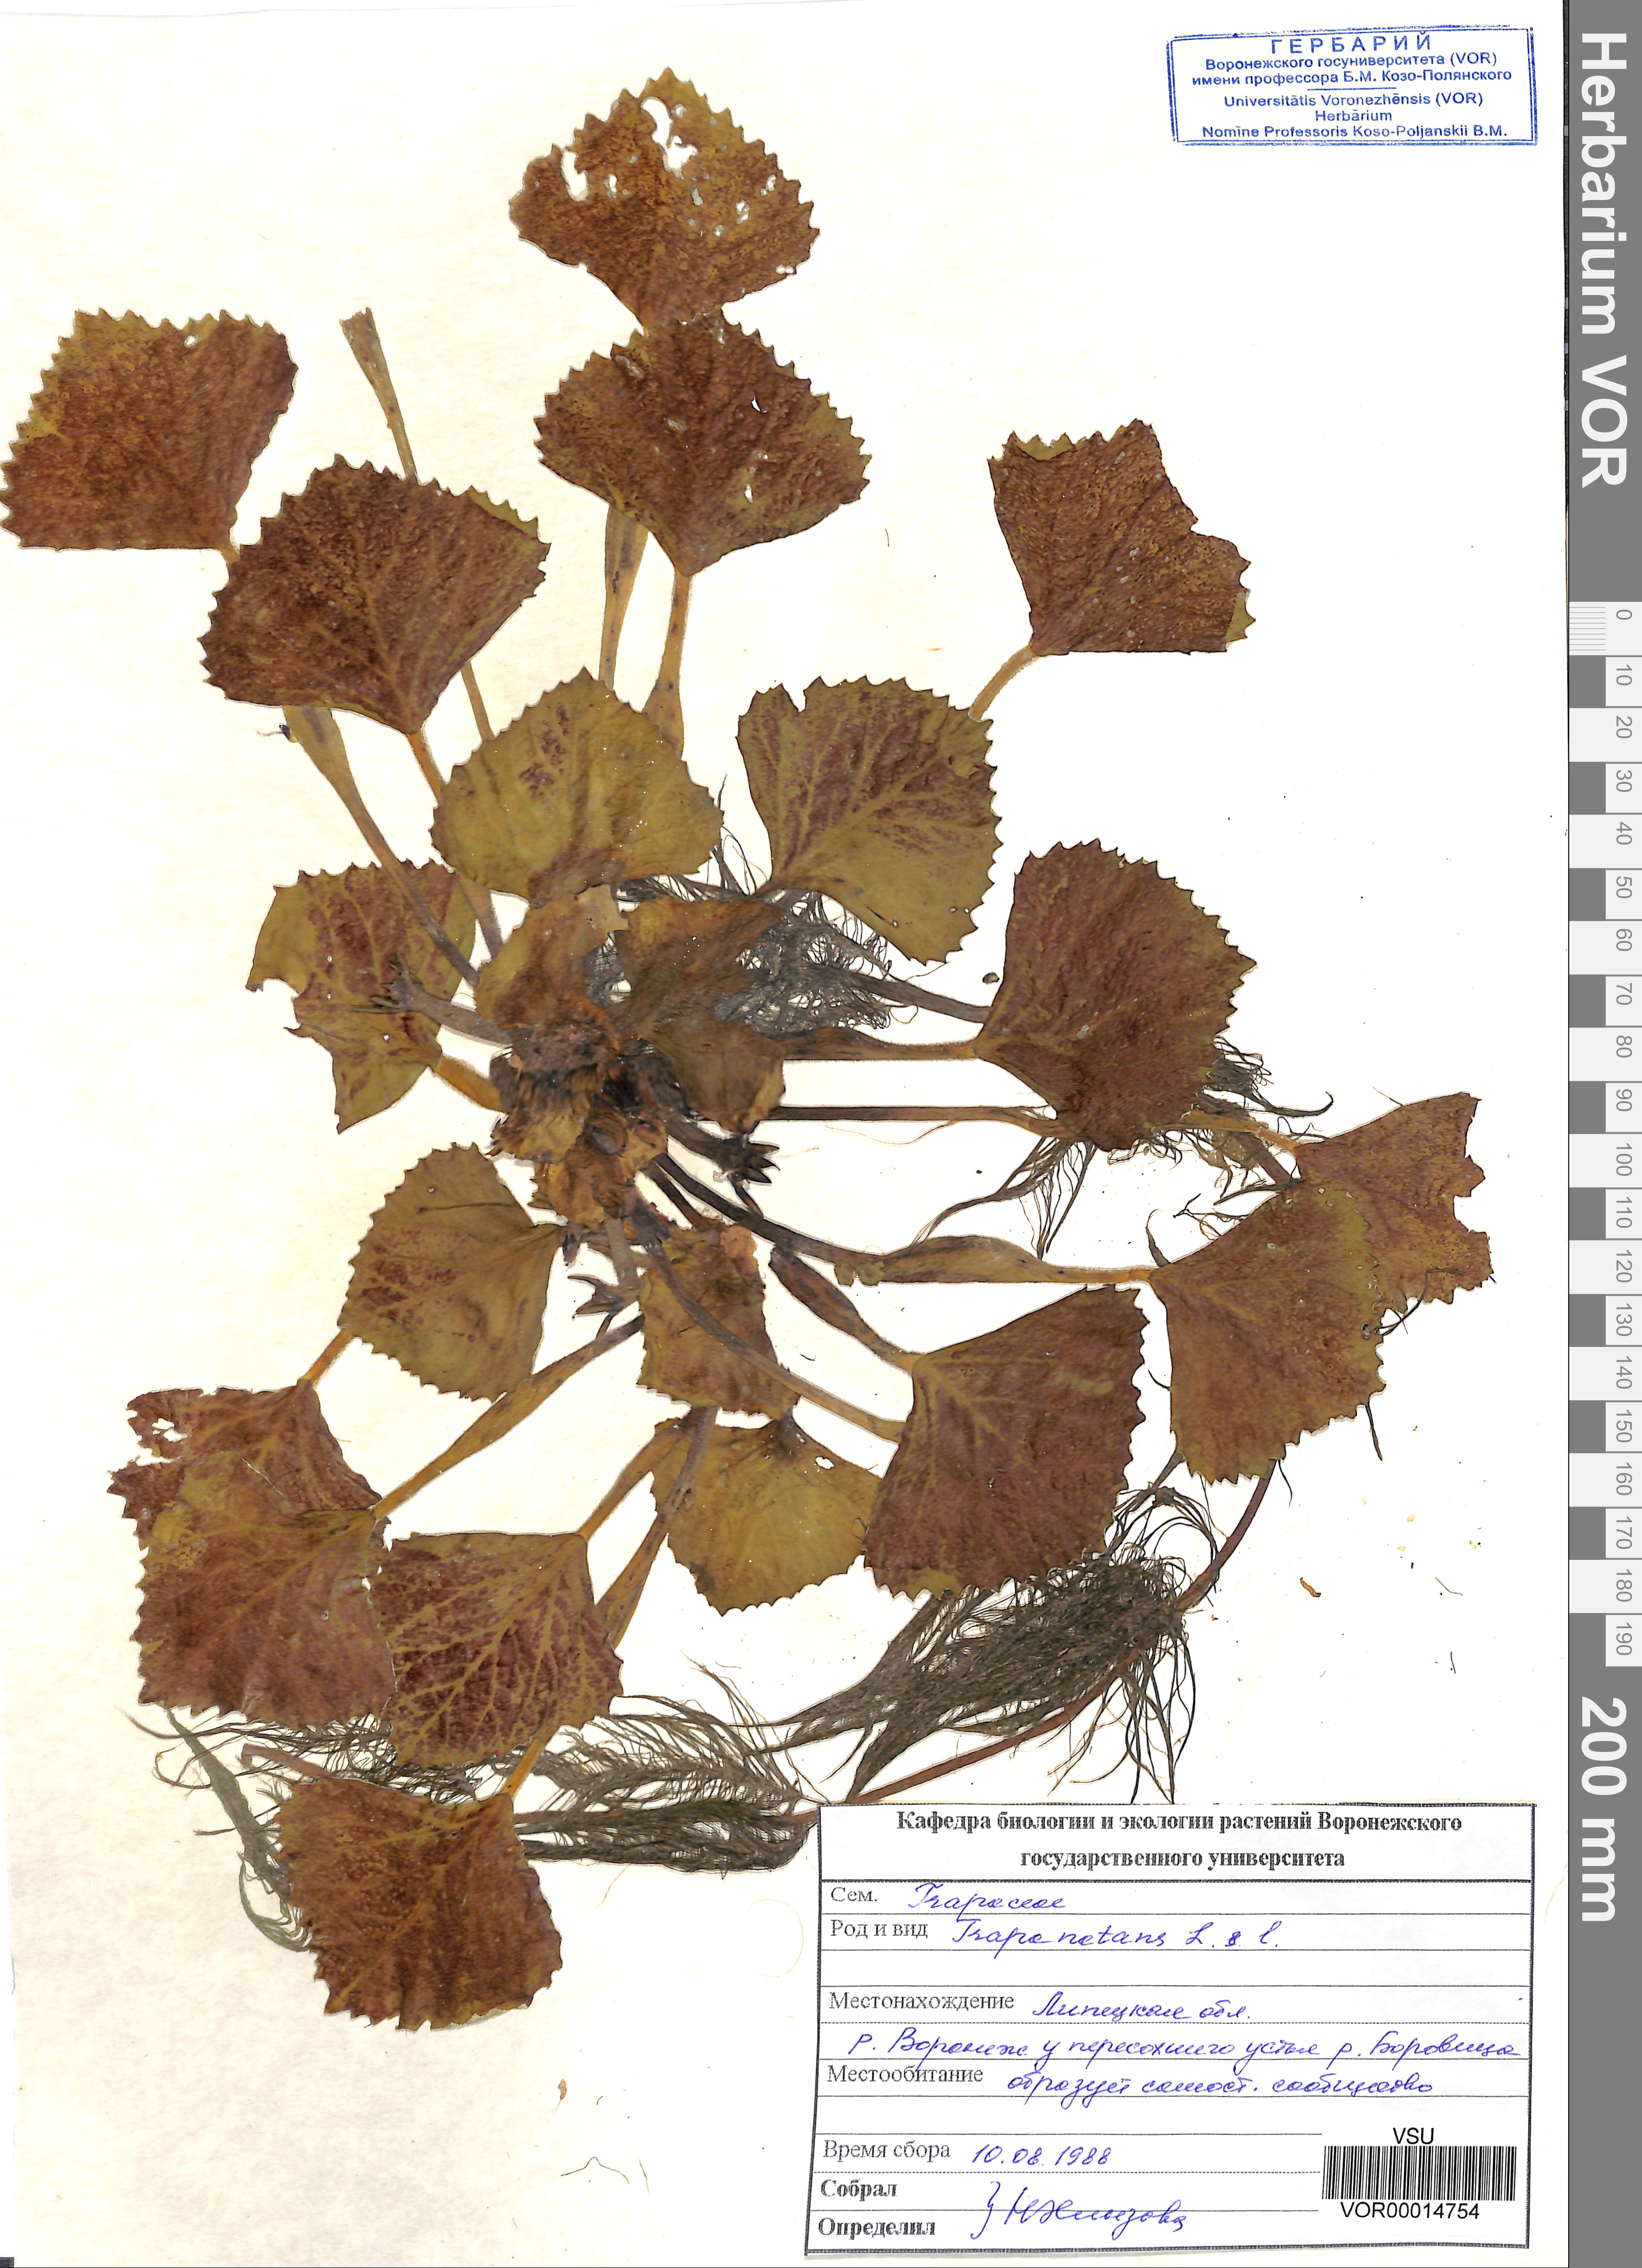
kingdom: Plantae
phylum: Tracheophyta
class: Magnoliopsida
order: Myrtales
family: Lythraceae
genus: Trapa
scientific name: Trapa natans
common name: Water chestnut
